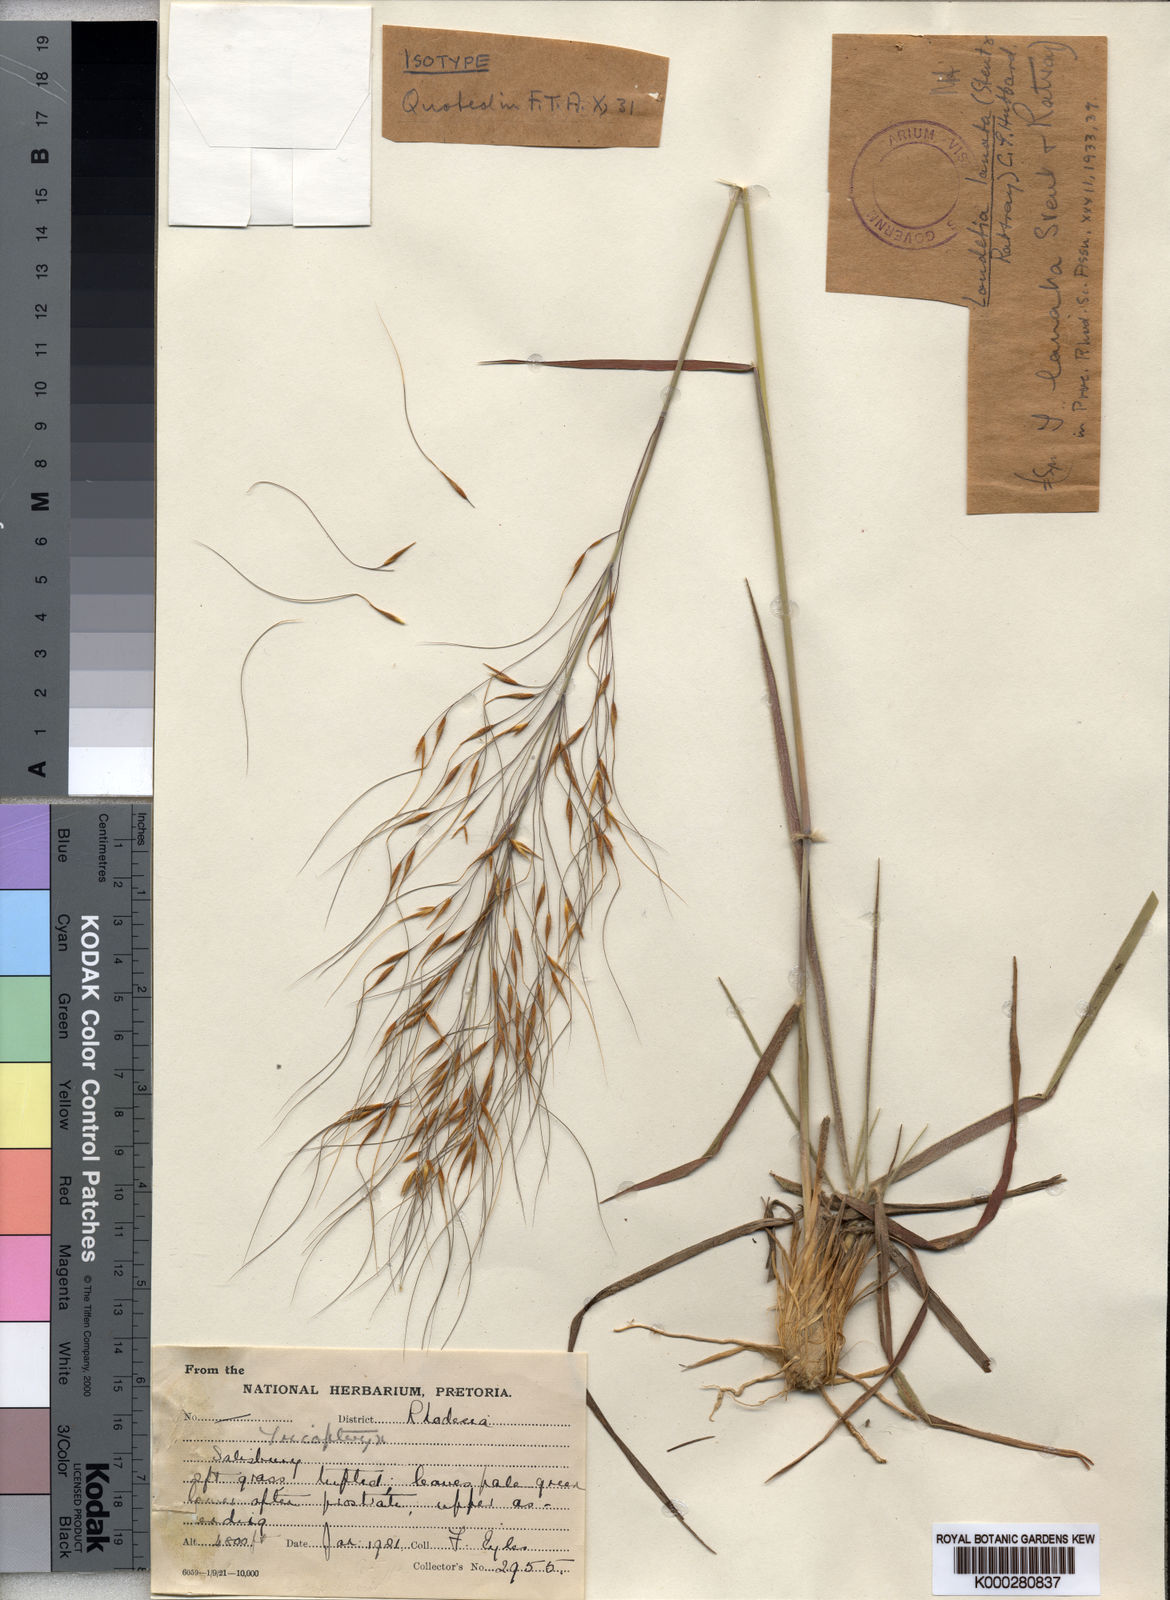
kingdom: Plantae
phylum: Tracheophyta
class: Liliopsida
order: Poales
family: Poaceae
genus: Loudetia
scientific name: Loudetia lanata
